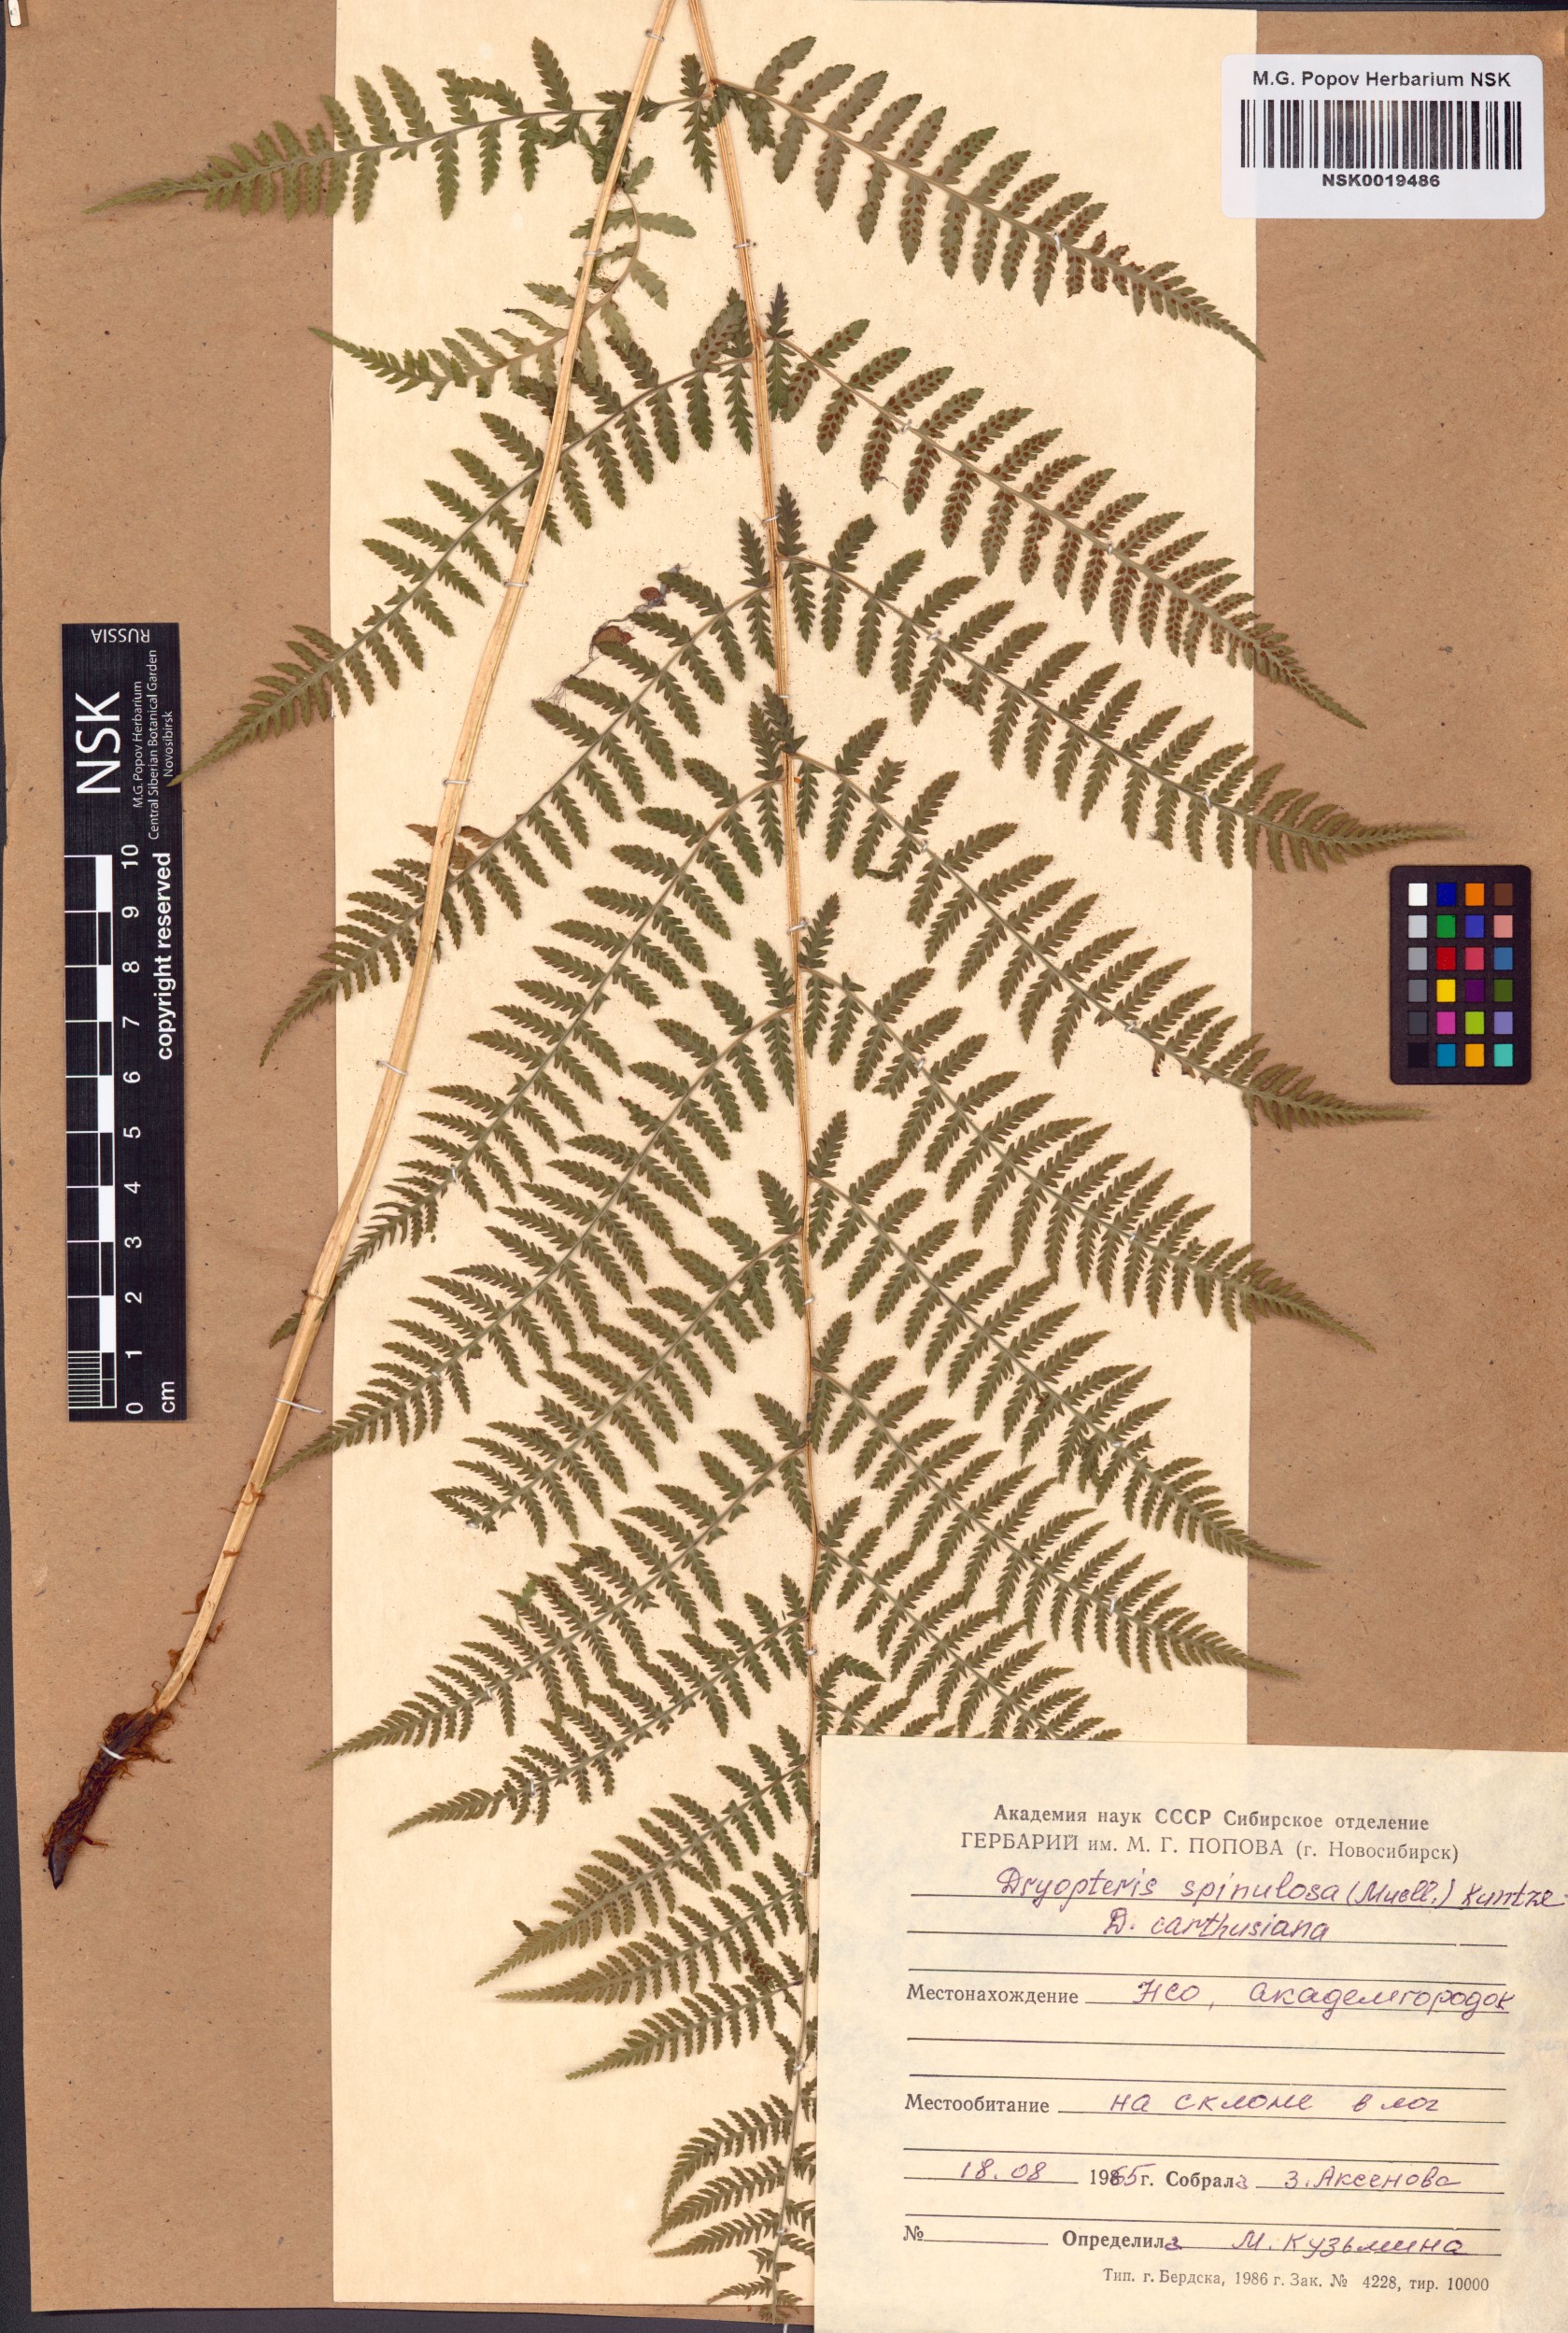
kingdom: Plantae
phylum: Tracheophyta
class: Polypodiopsida
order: Polypodiales
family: Dryopteridaceae
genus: Dryopteris
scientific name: Dryopteris carthusiana
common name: Narrow buckler-fern
